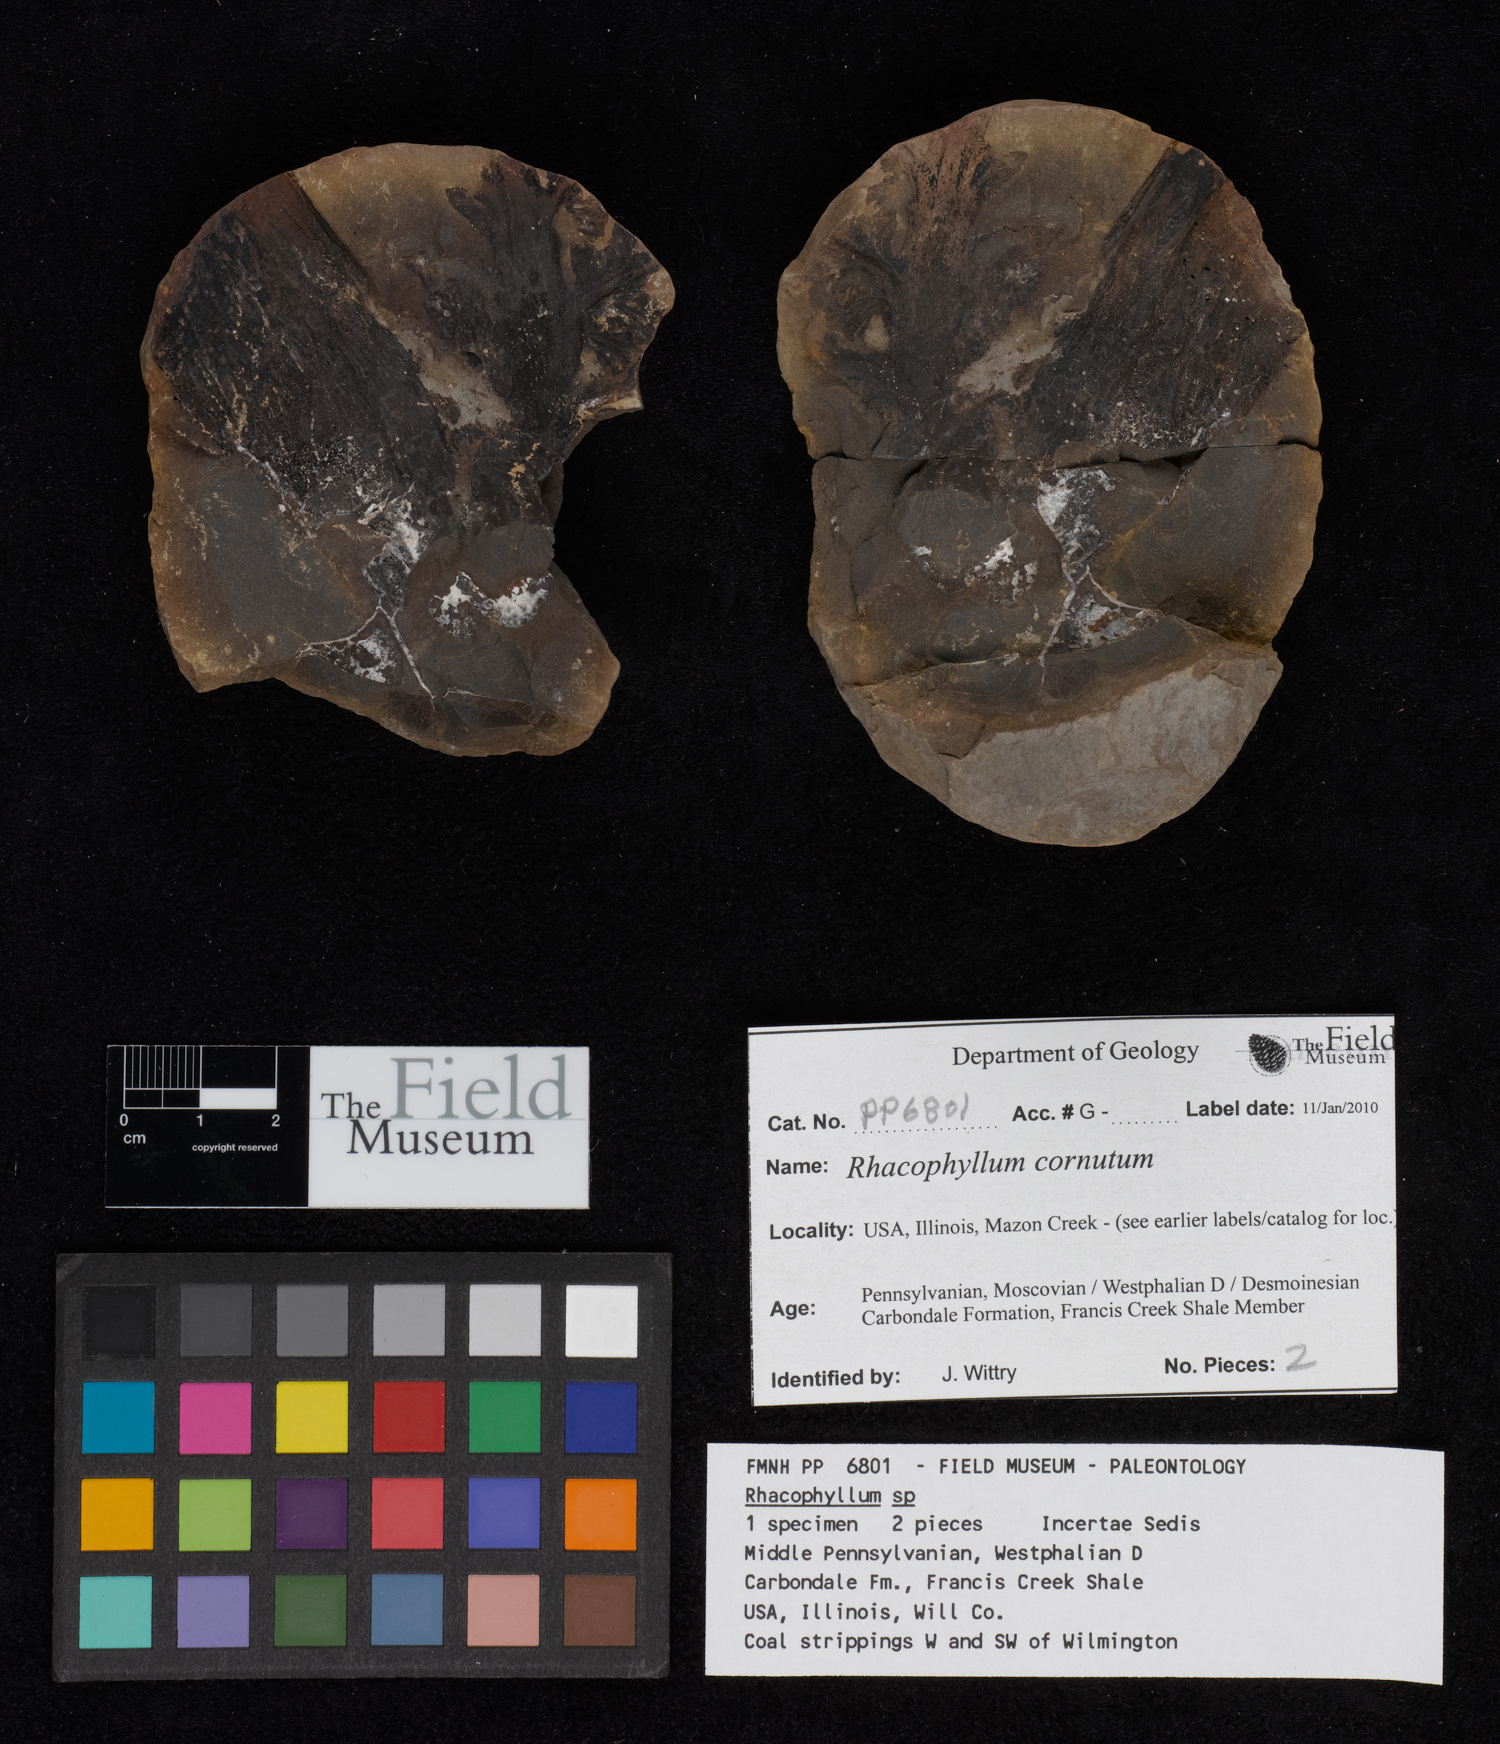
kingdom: Plantae
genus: Rhacophyllum
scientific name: Rhacophyllum
